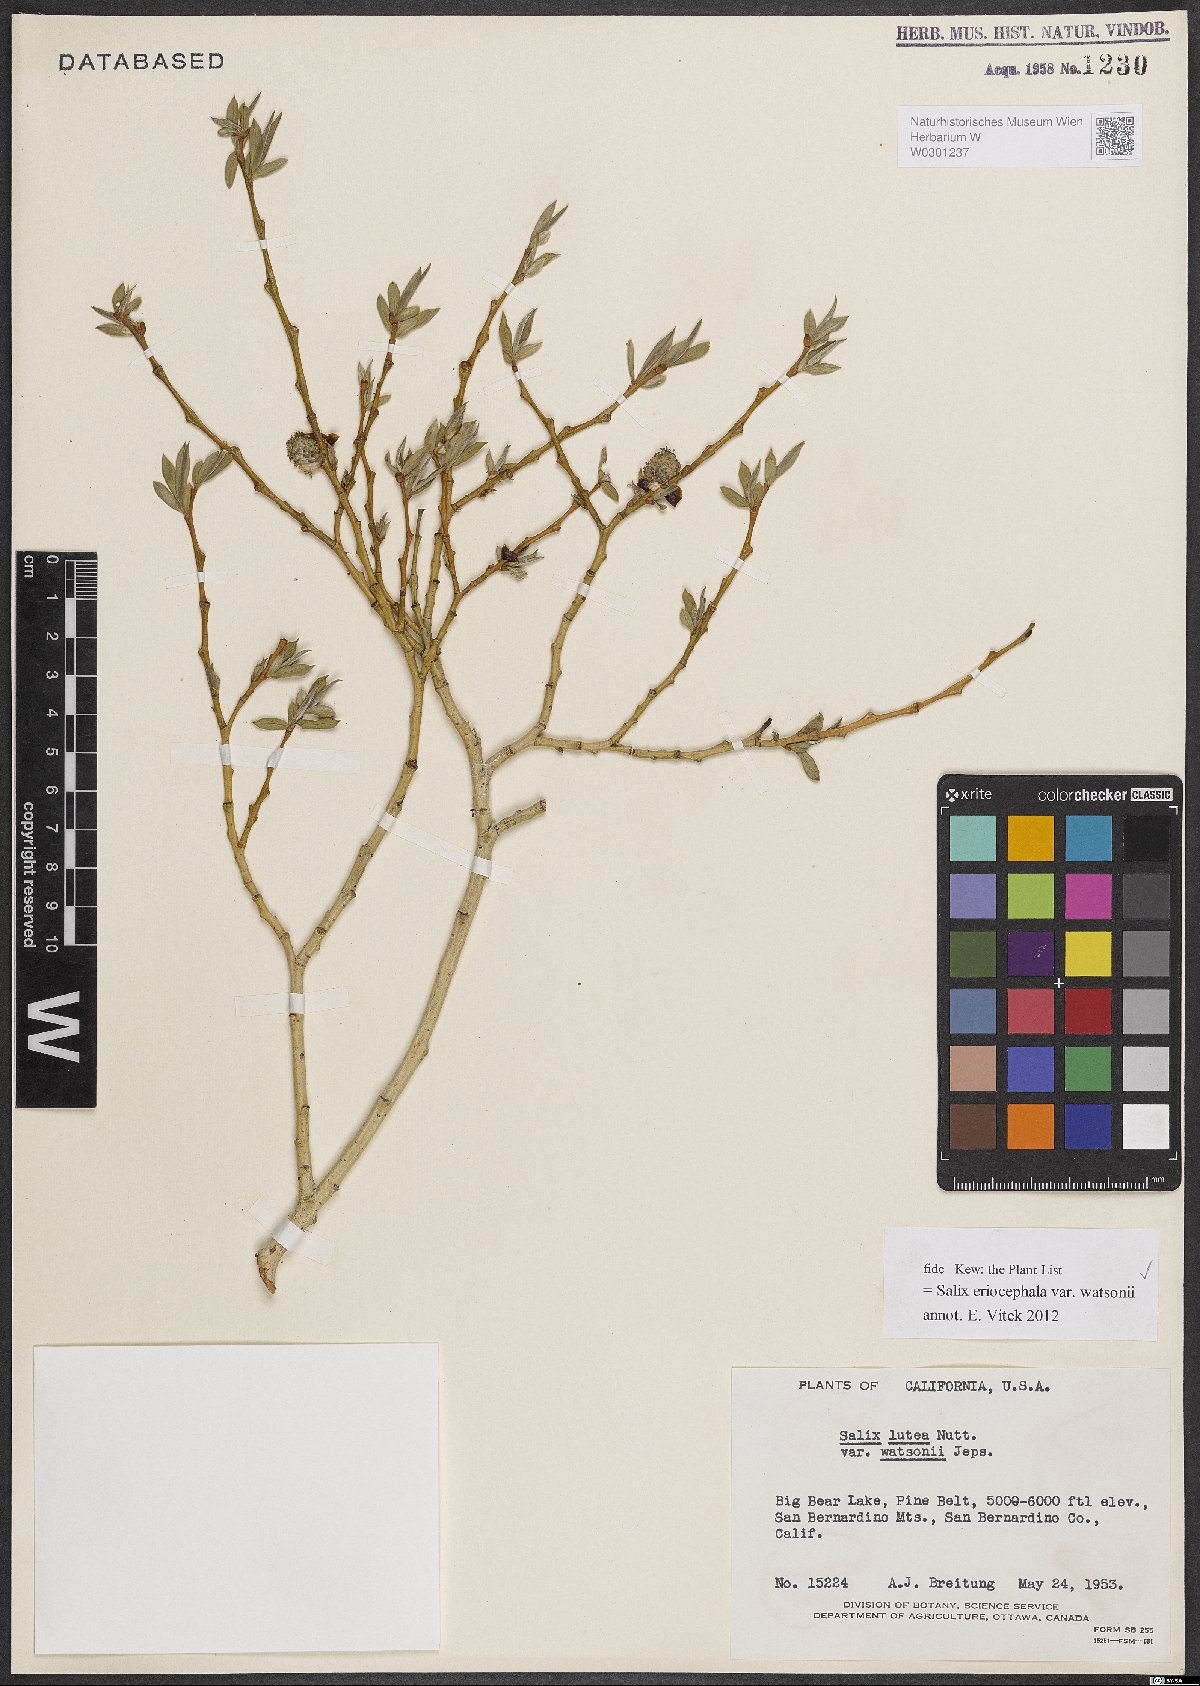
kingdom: Plantae
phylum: Tracheophyta
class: Magnoliopsida
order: Malpighiales
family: Salicaceae
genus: Salix
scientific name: Salix lutea
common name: Yellow willow
